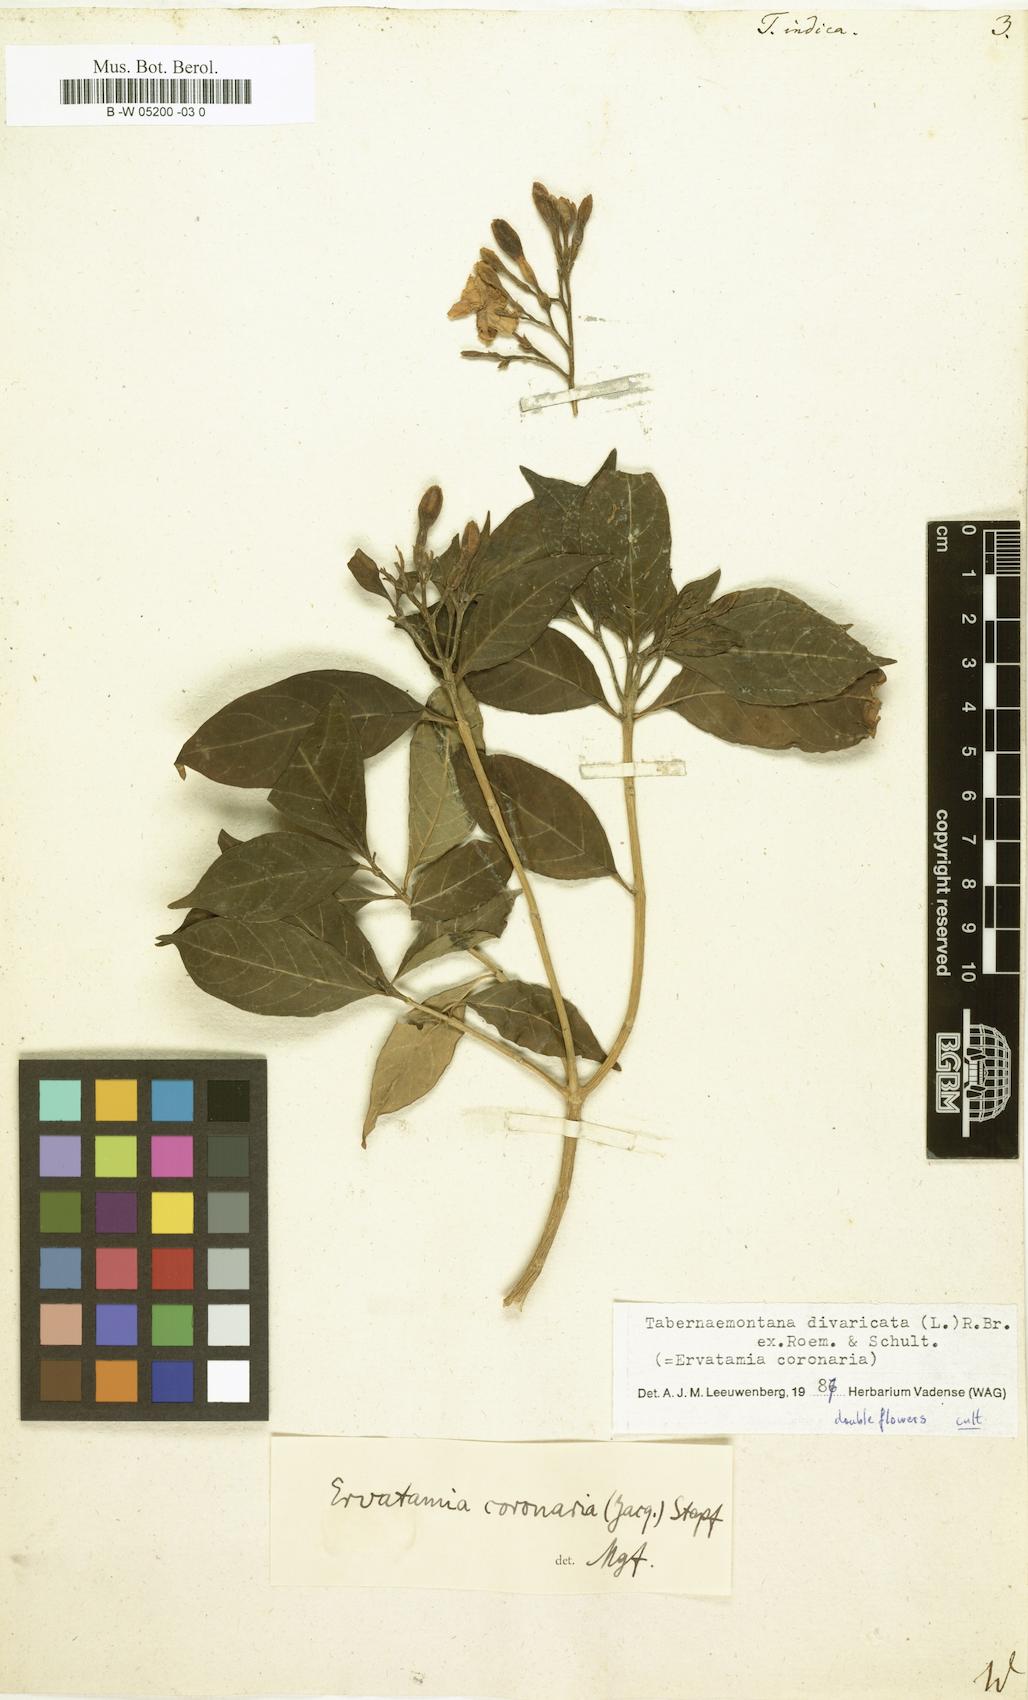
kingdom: Plantae
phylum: Tracheophyta
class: Magnoliopsida
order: Gentianales
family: Apocynaceae
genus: Tabernaemontana
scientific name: Tabernaemontana indica
